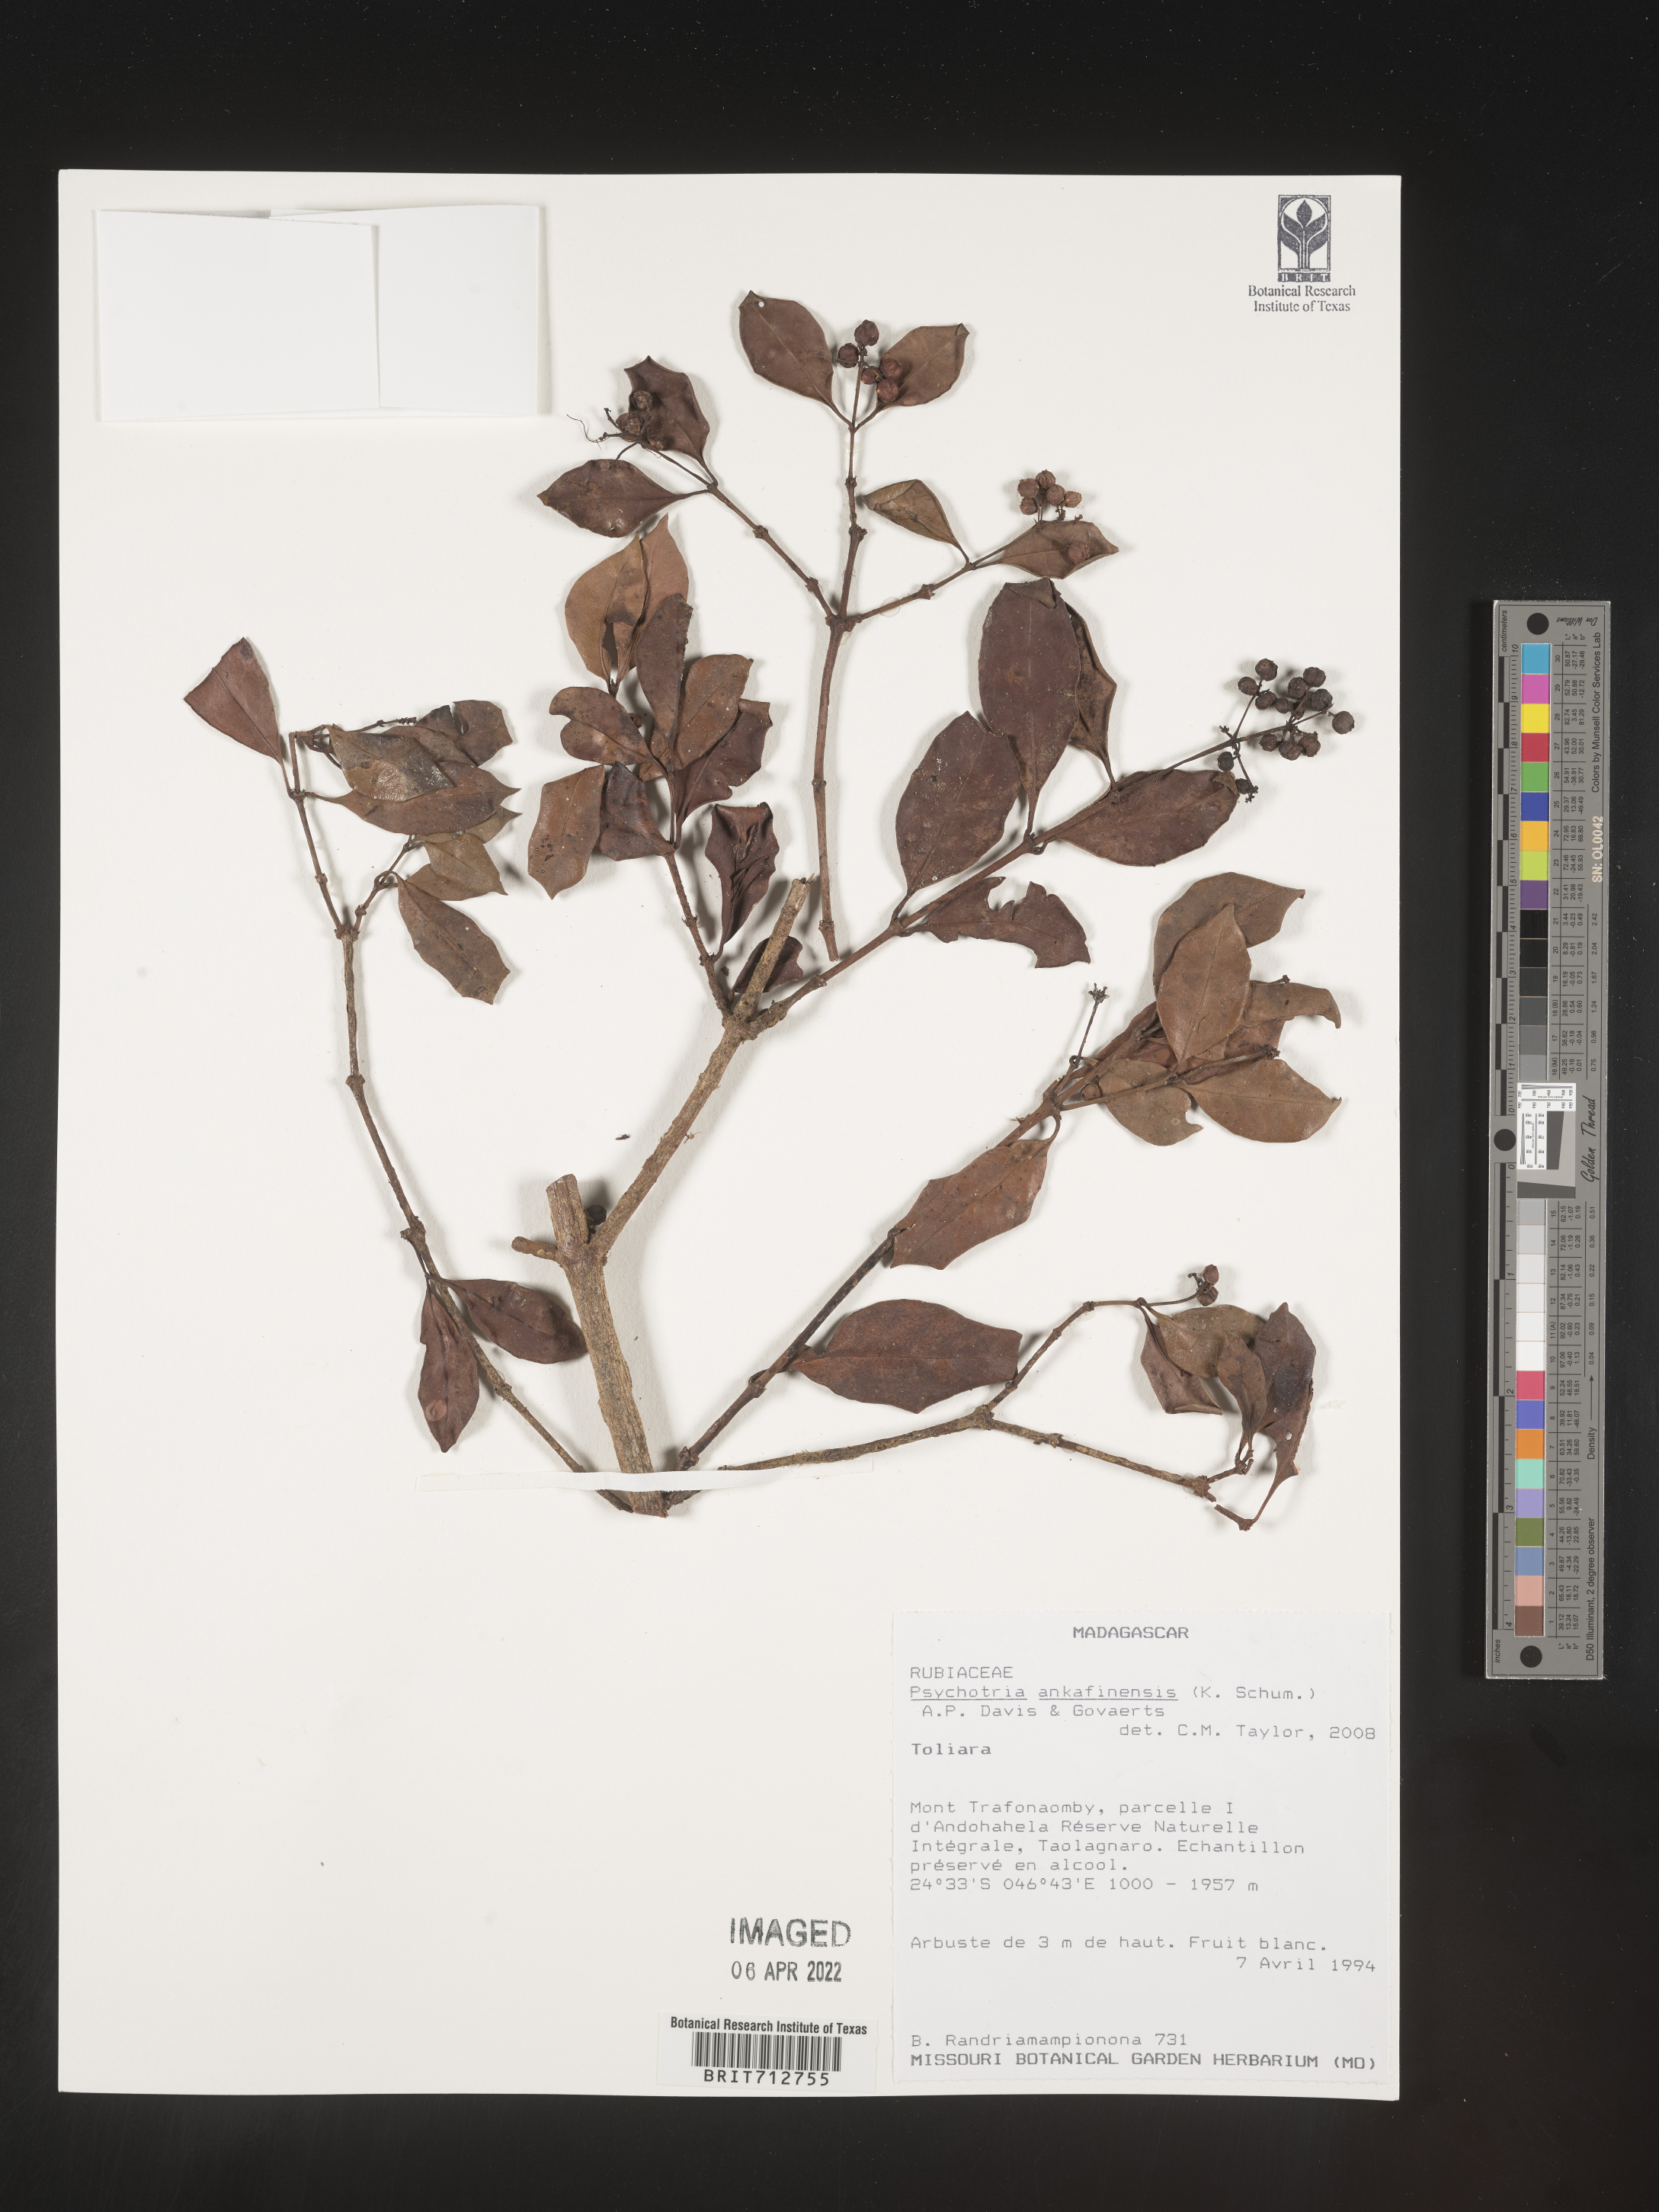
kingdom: Plantae
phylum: Tracheophyta
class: Magnoliopsida
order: Gentianales
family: Rubiaceae
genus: Psychotria
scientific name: Psychotria
